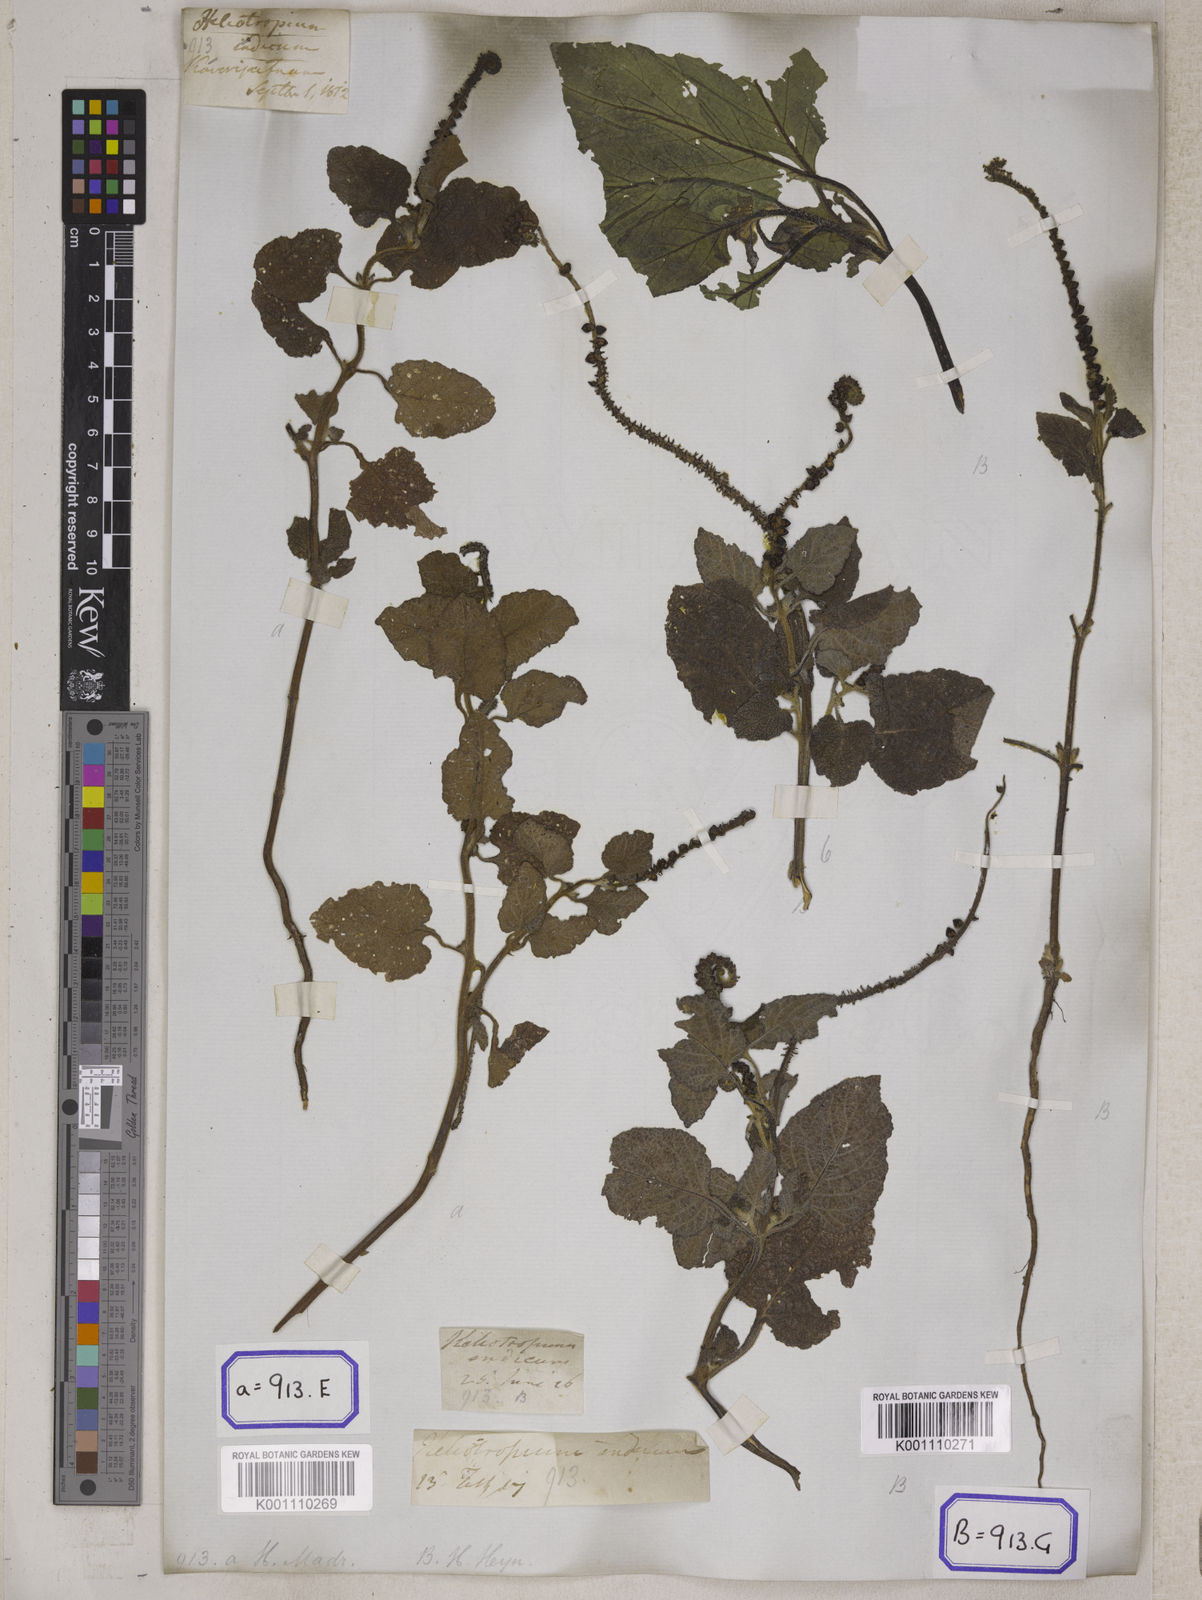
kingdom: Plantae
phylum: Tracheophyta
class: Magnoliopsida
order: Boraginales
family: Heliotropiaceae
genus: Heliotropium
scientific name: Heliotropium indicum
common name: Indian heliotrope
